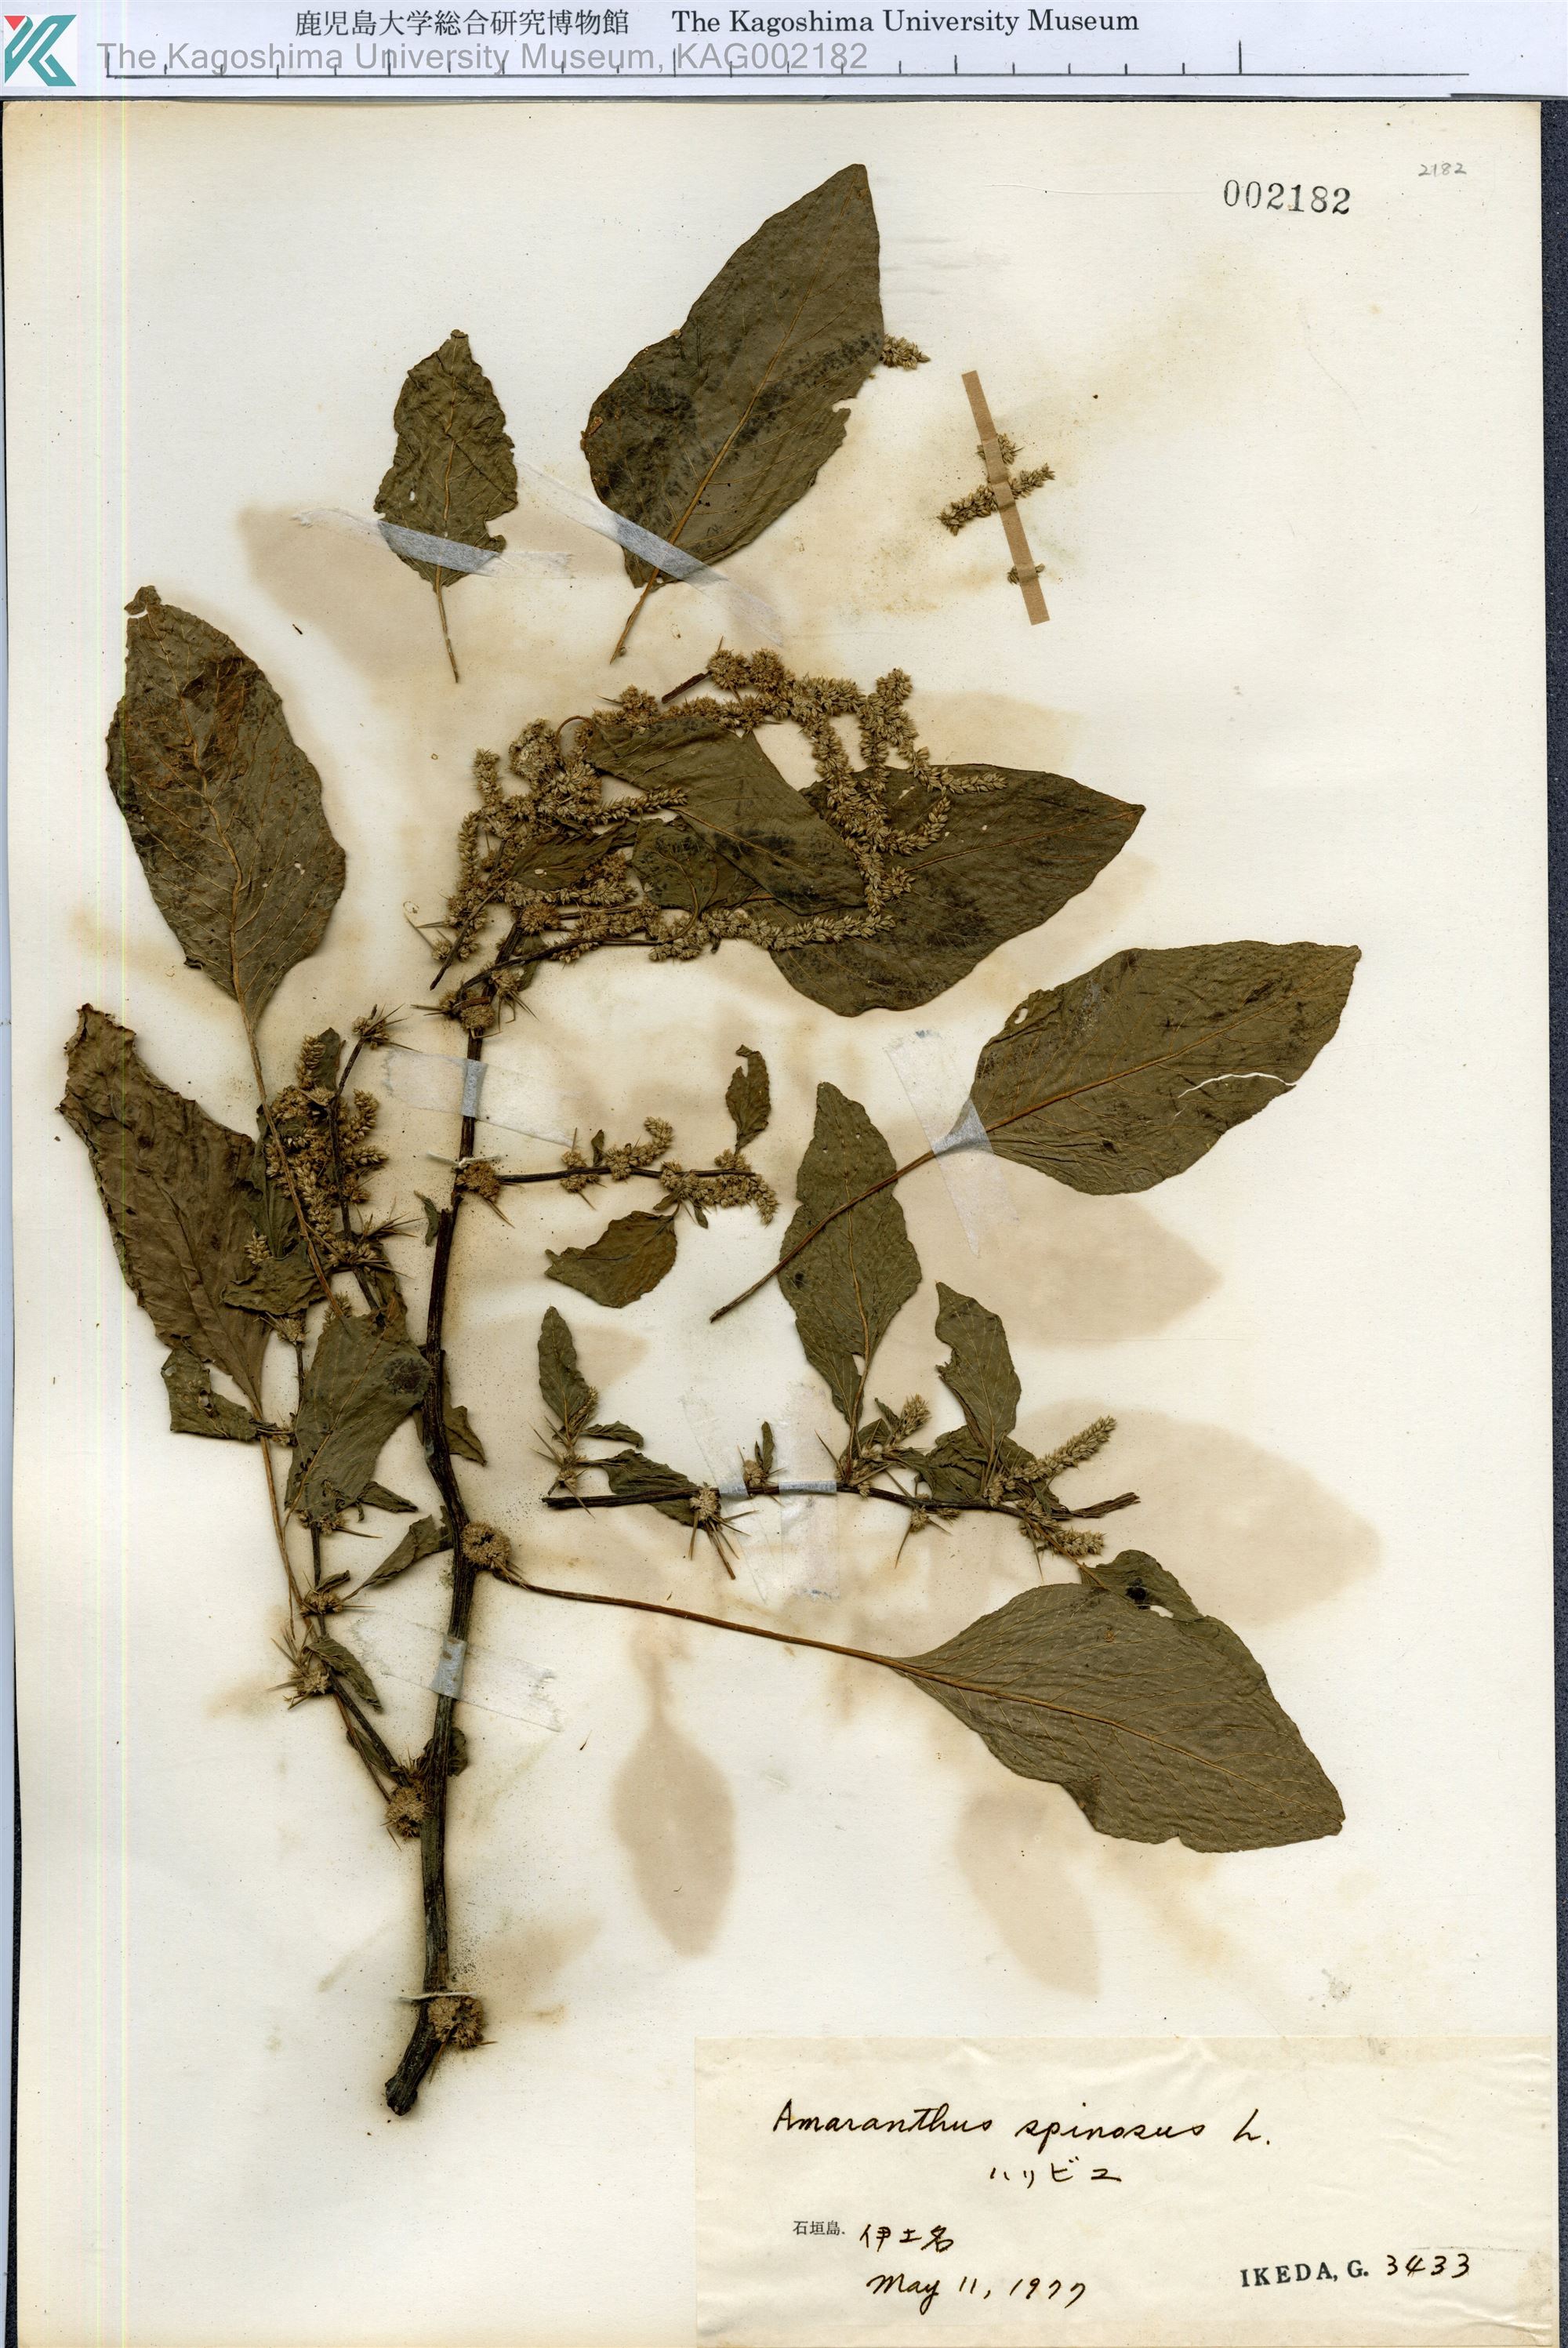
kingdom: Plantae
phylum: Tracheophyta
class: Magnoliopsida
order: Caryophyllales
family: Amaranthaceae
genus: Amaranthus
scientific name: Amaranthus spinosus
